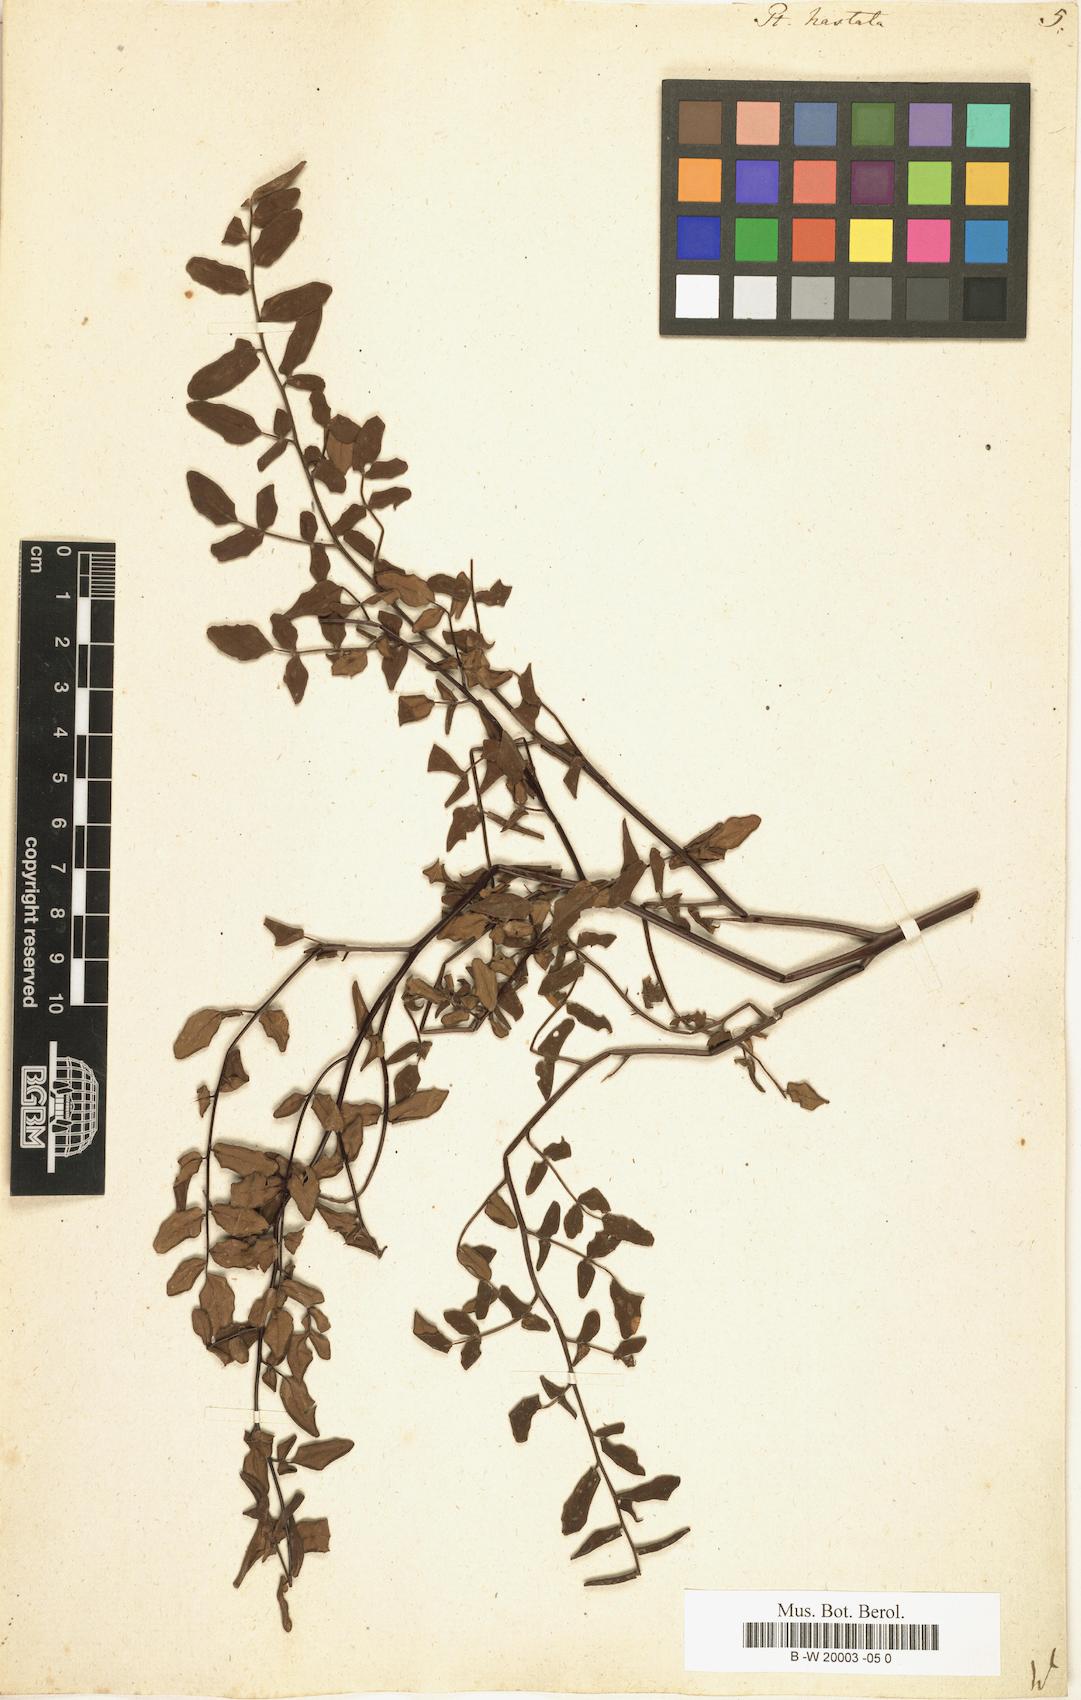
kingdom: Plantae
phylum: Tracheophyta
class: Polypodiopsida
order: Polypodiales
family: Pteridaceae
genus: Pteris
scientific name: Pteris hastata
